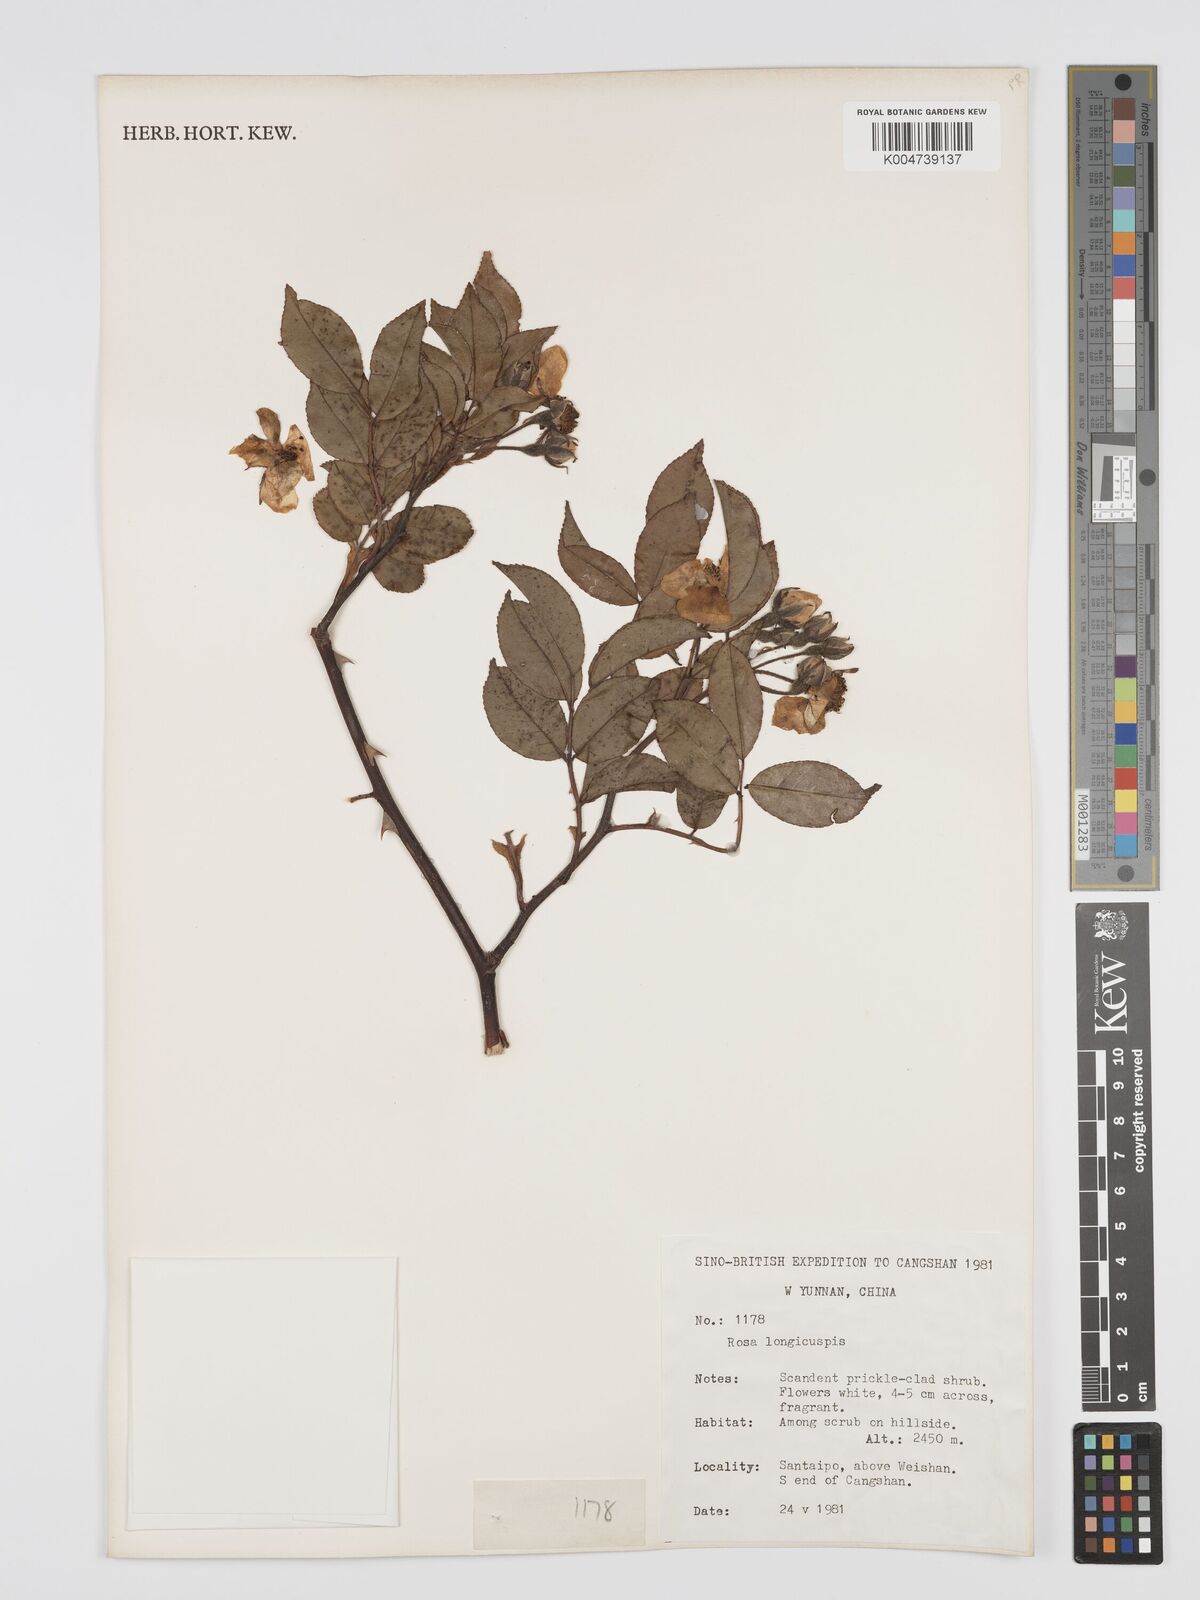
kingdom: Plantae
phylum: Tracheophyta
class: Magnoliopsida
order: Rosales
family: Rosaceae
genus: Rosa
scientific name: Rosa longicuspis
